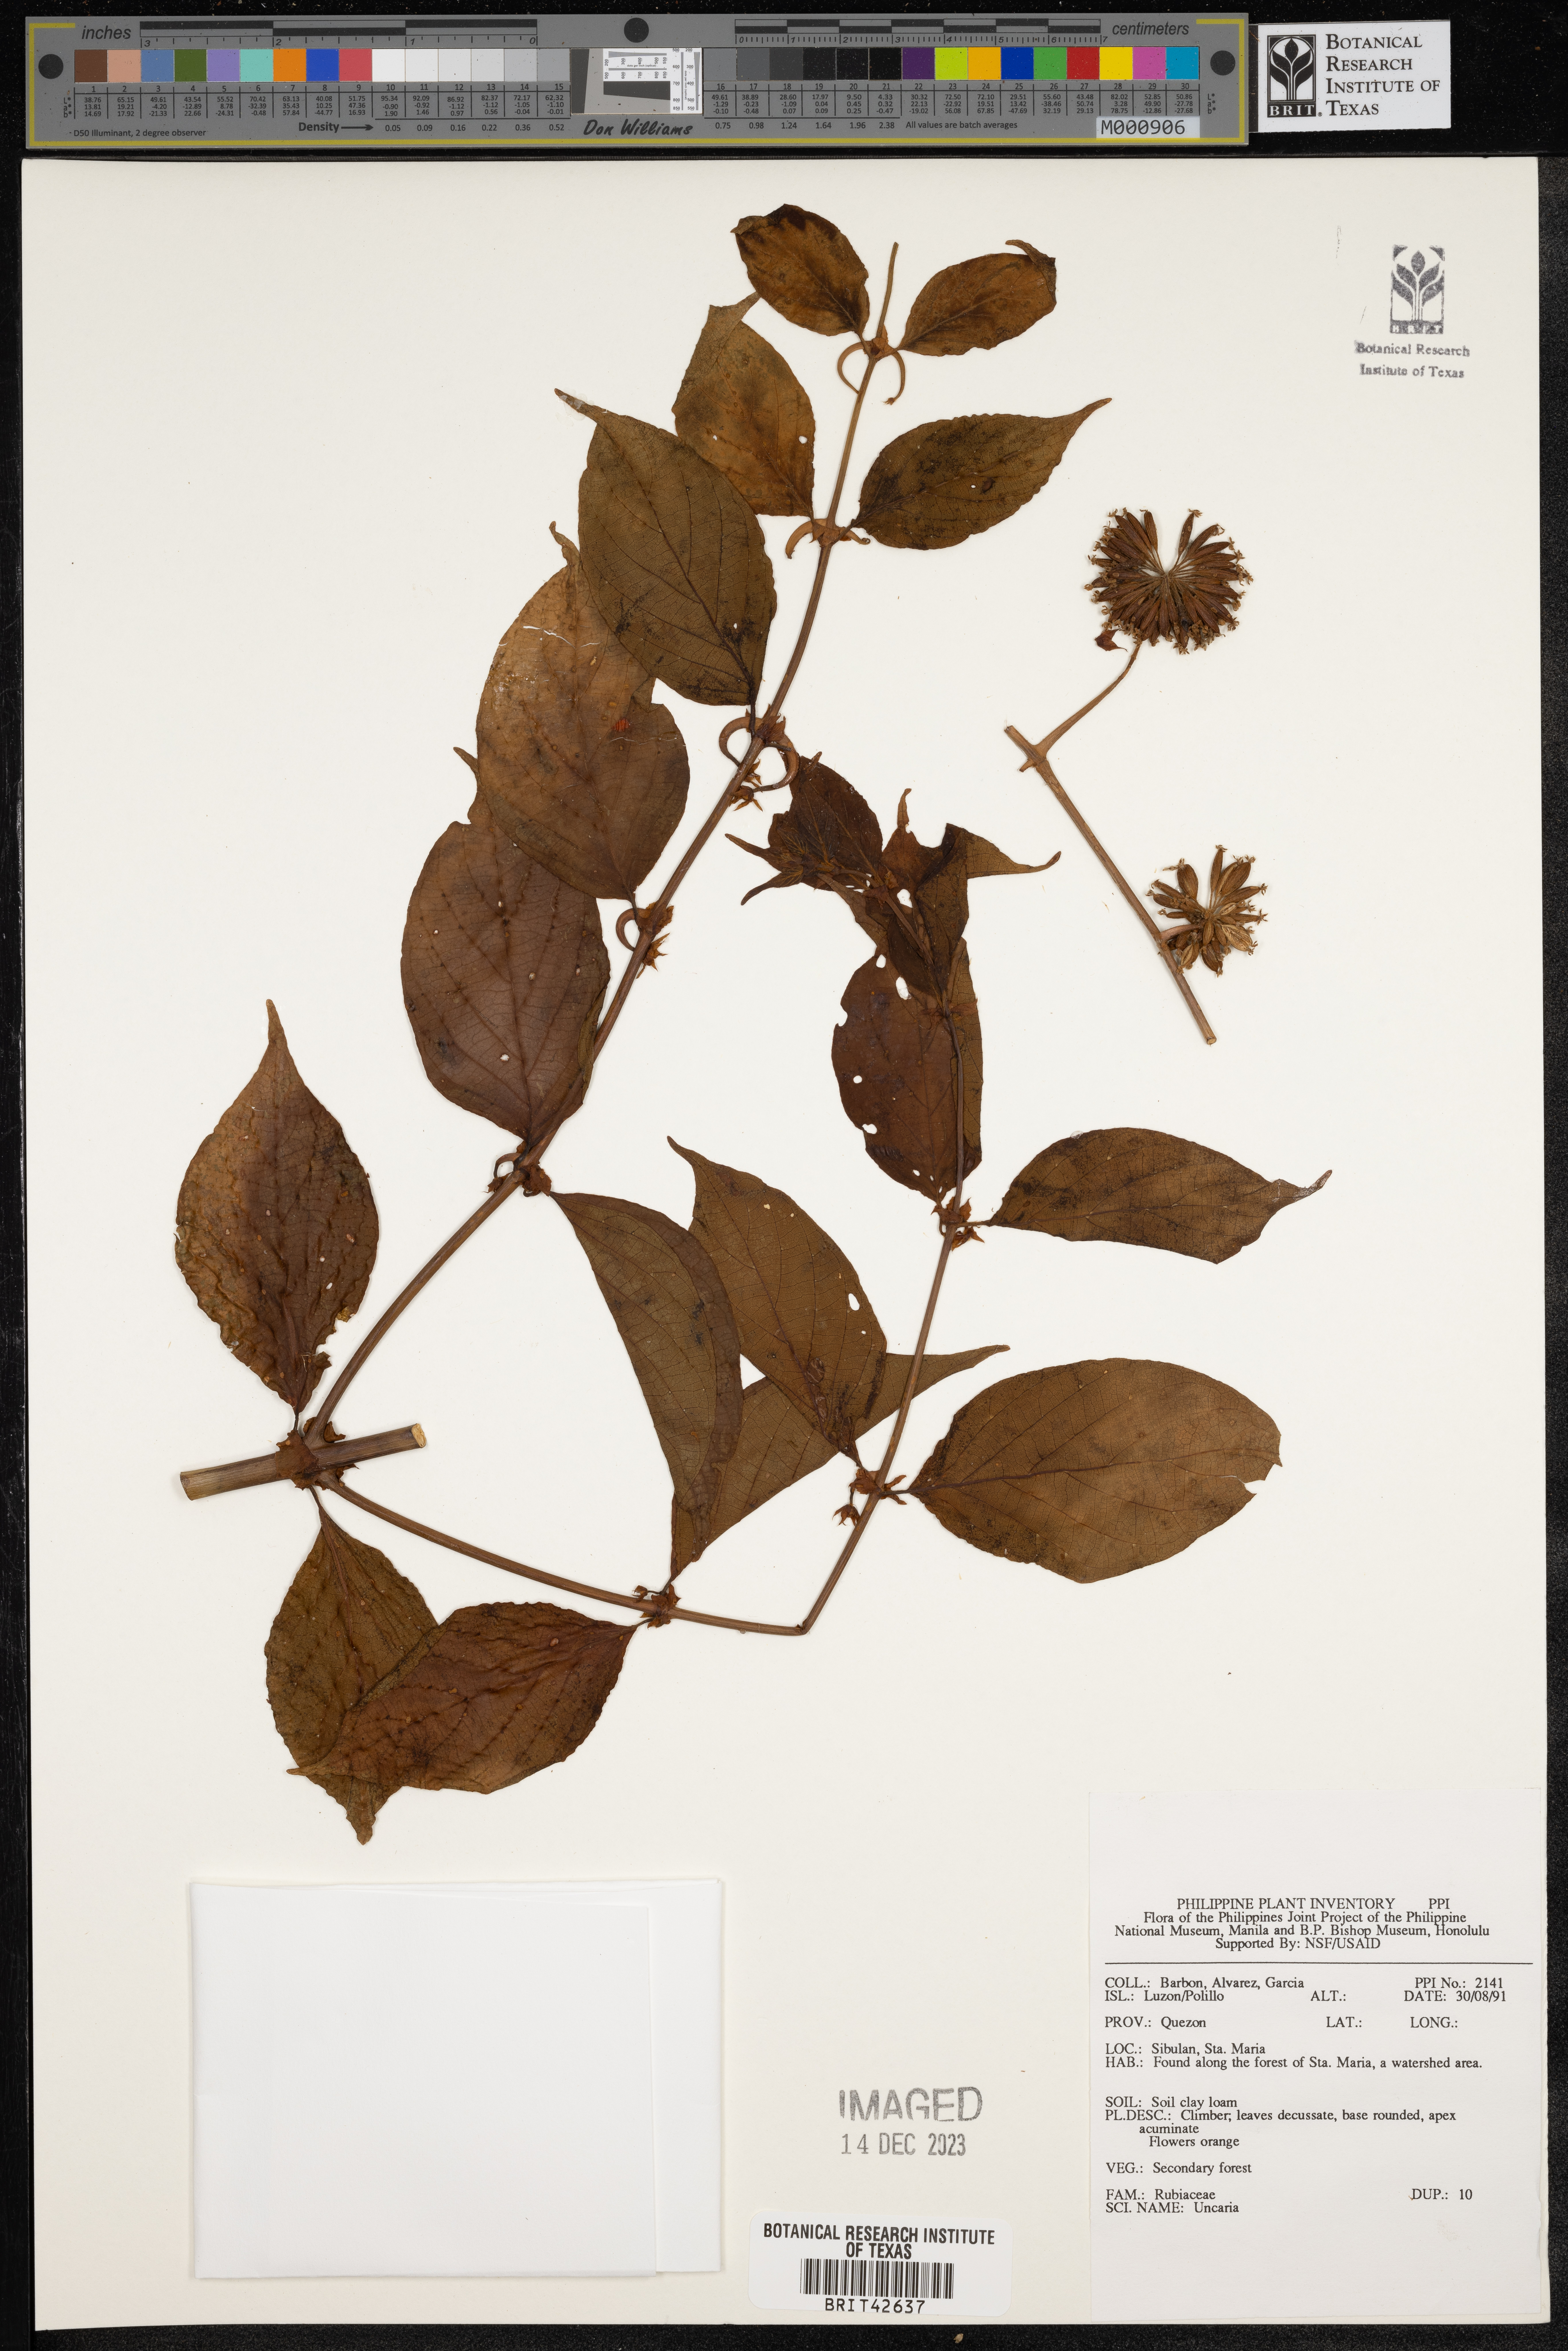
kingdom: Plantae
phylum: Tracheophyta
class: Magnoliopsida
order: Gentianales
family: Rubiaceae
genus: Uncaria
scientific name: Uncaria
